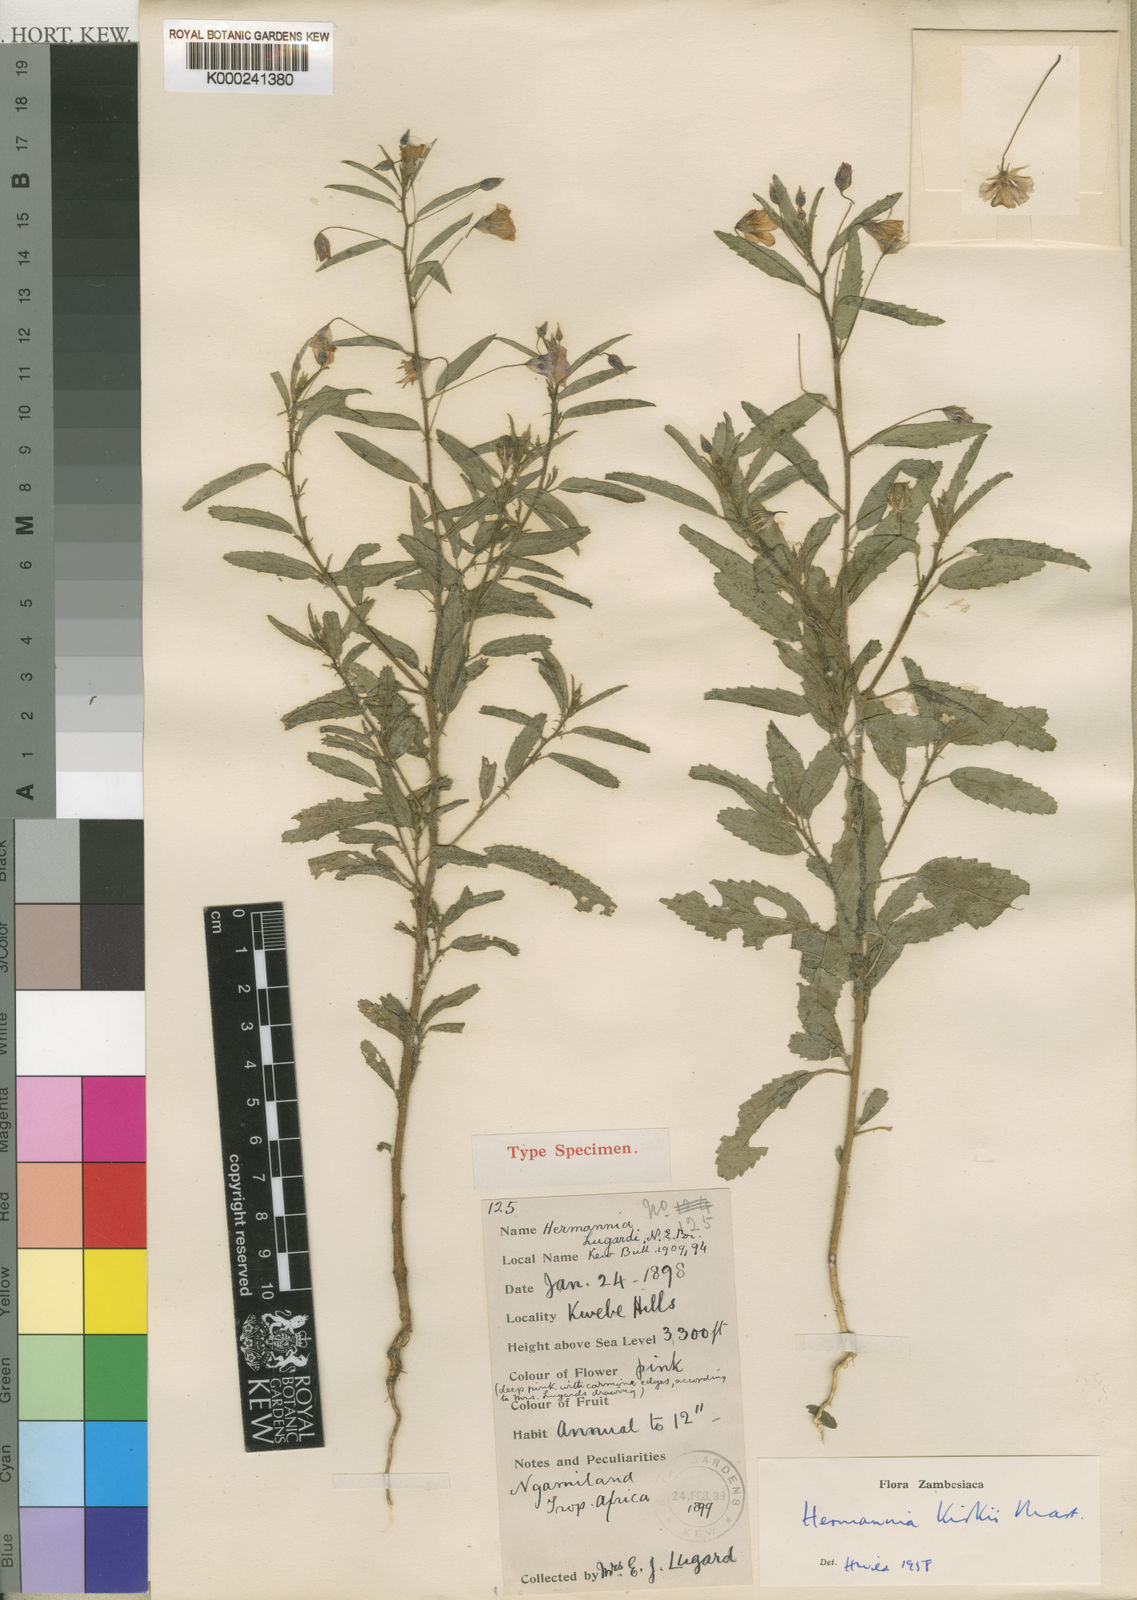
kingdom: Plantae
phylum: Tracheophyta
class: Magnoliopsida
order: Malvales
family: Malvaceae
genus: Hermannia
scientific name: Hermannia modesta
